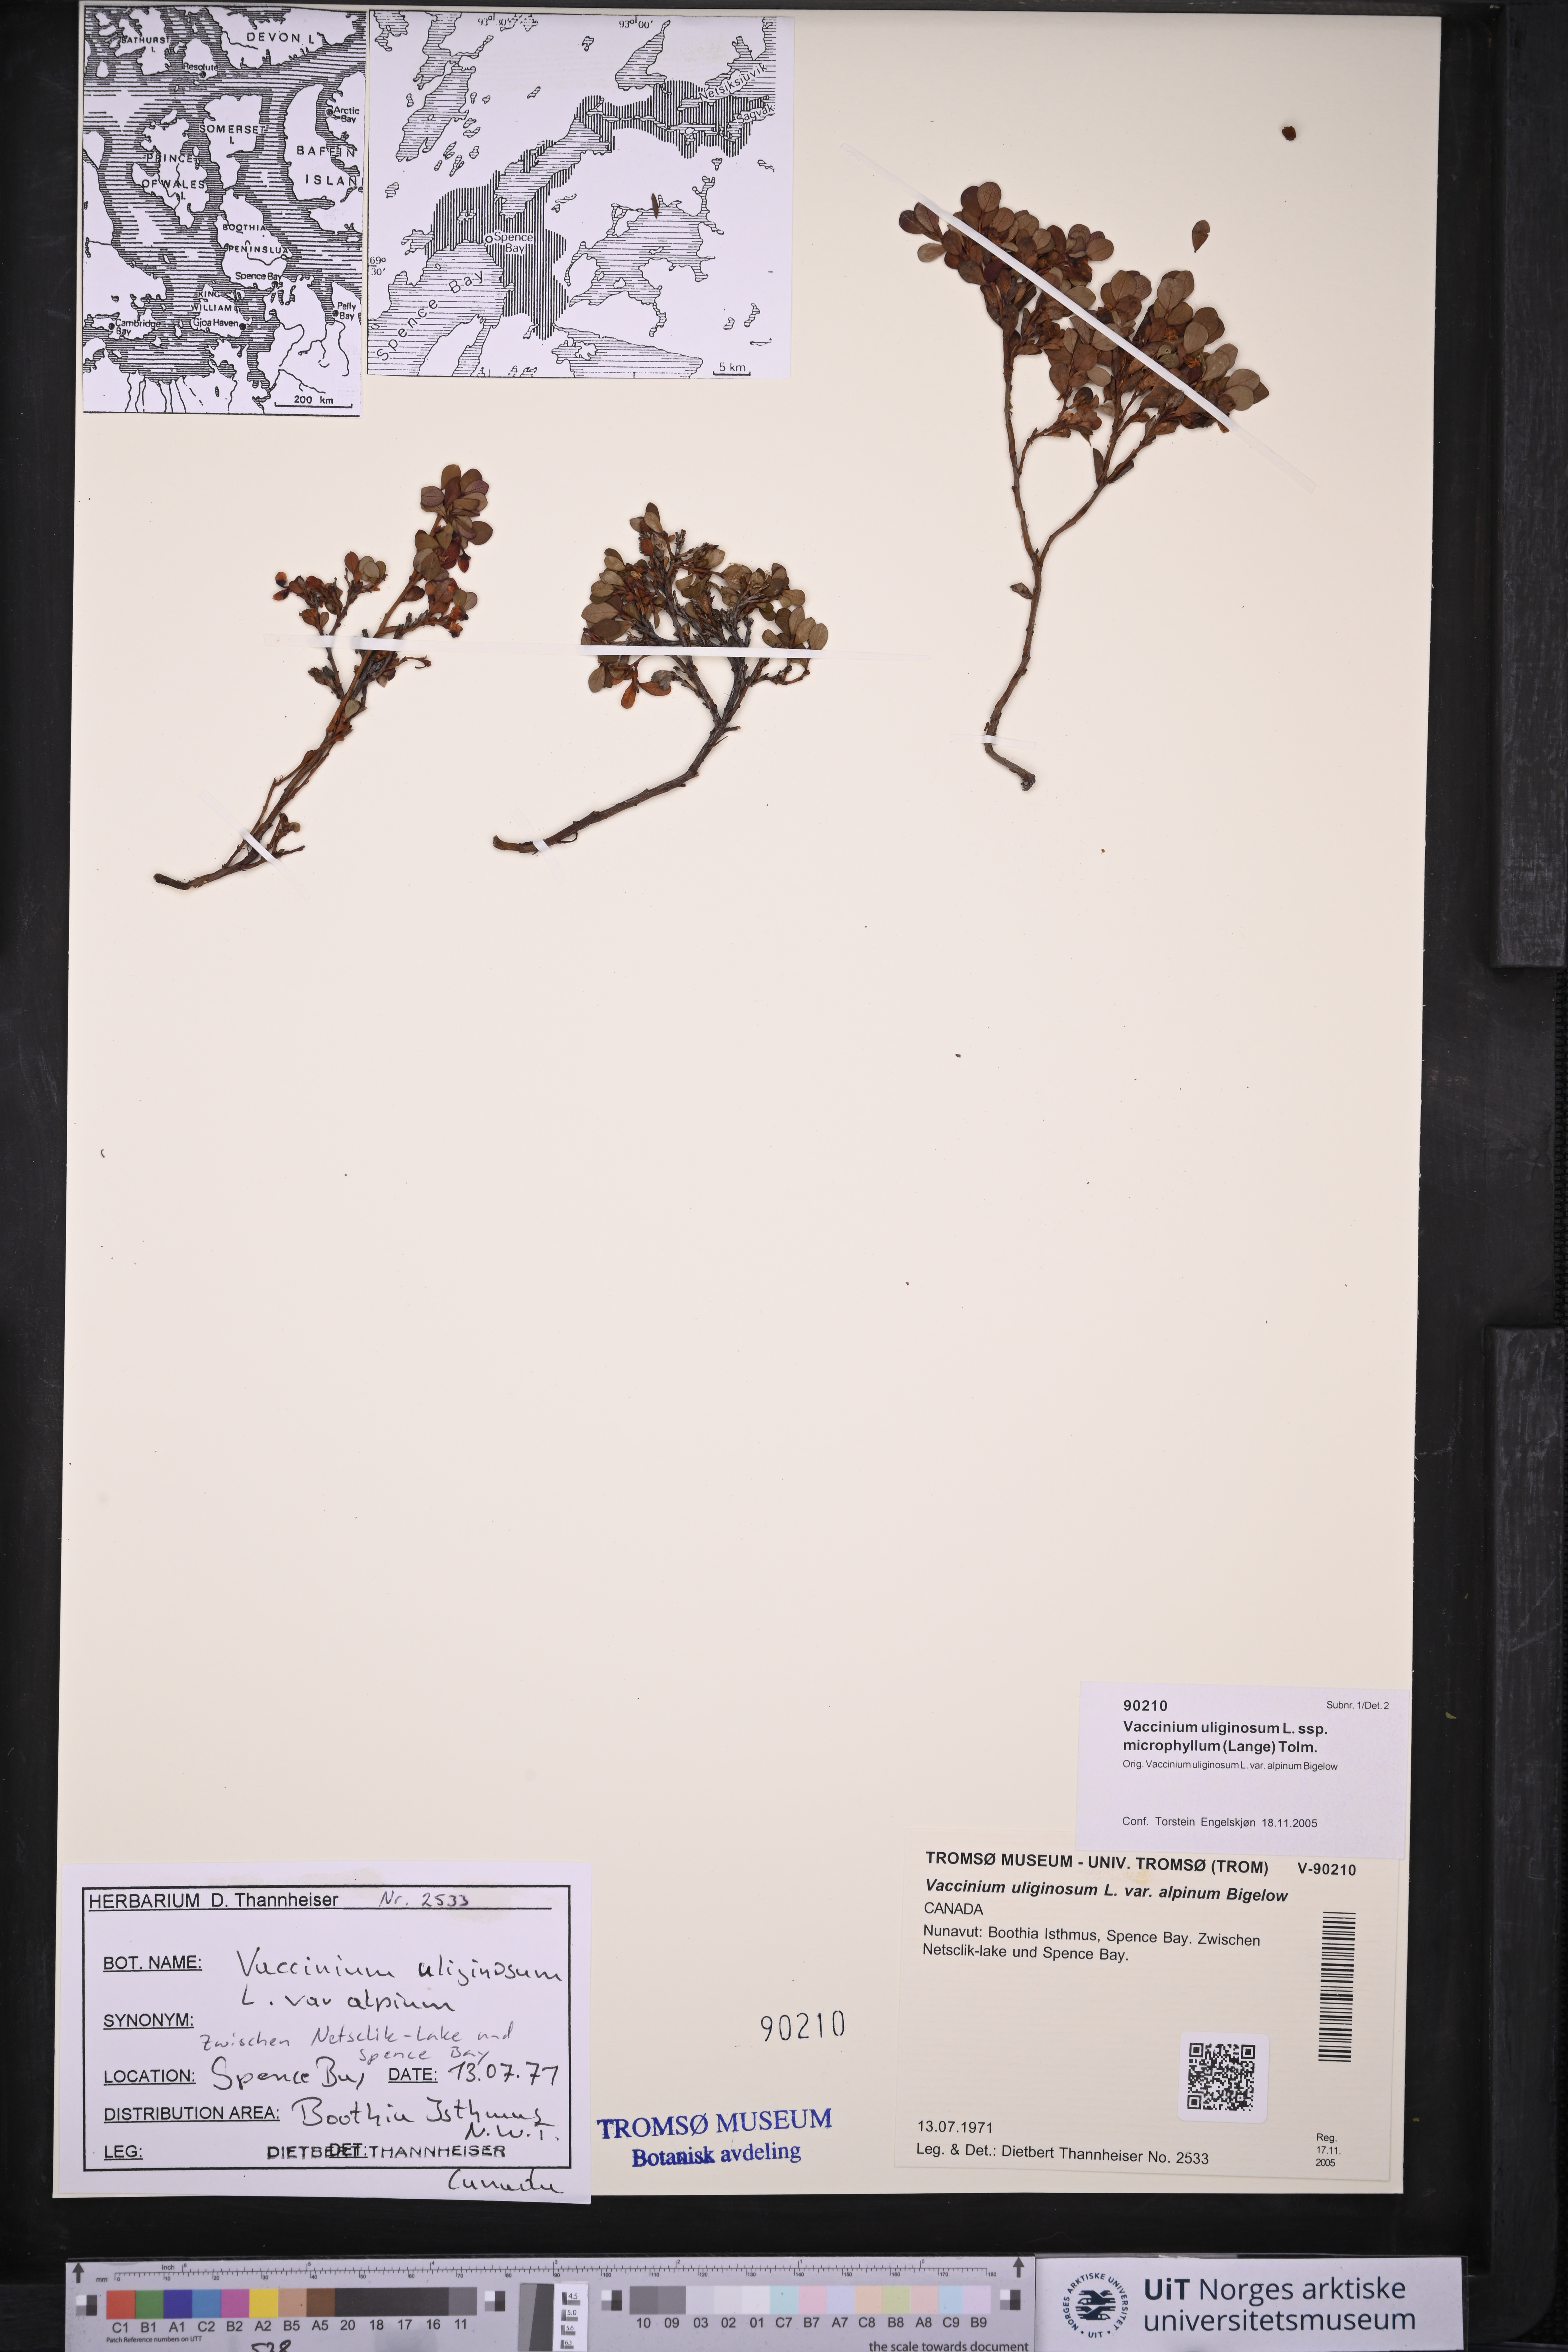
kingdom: Plantae
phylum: Tracheophyta
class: Magnoliopsida
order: Ericales
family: Ericaceae
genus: Vaccinium
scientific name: Vaccinium gaultherioides
